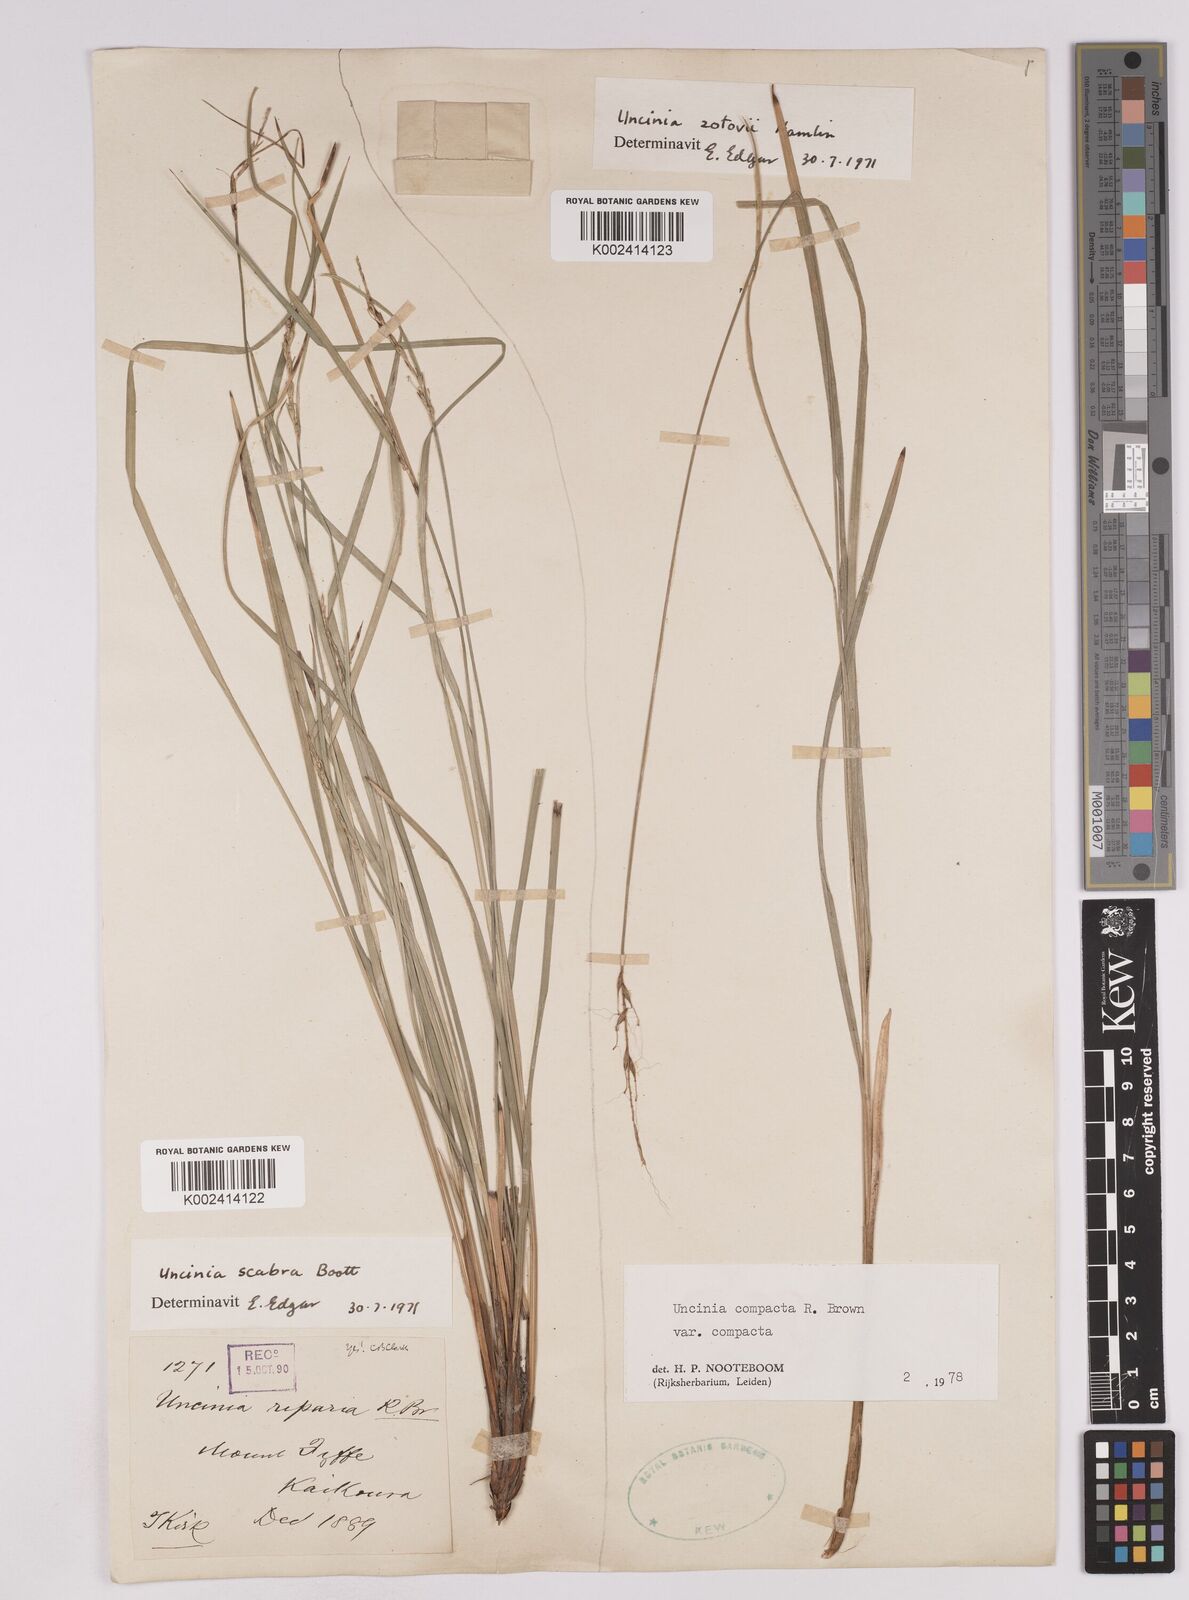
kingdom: Plantae
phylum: Tracheophyta
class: Liliopsida
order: Poales
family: Cyperaceae
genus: Carex
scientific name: Carex austrocompacta
